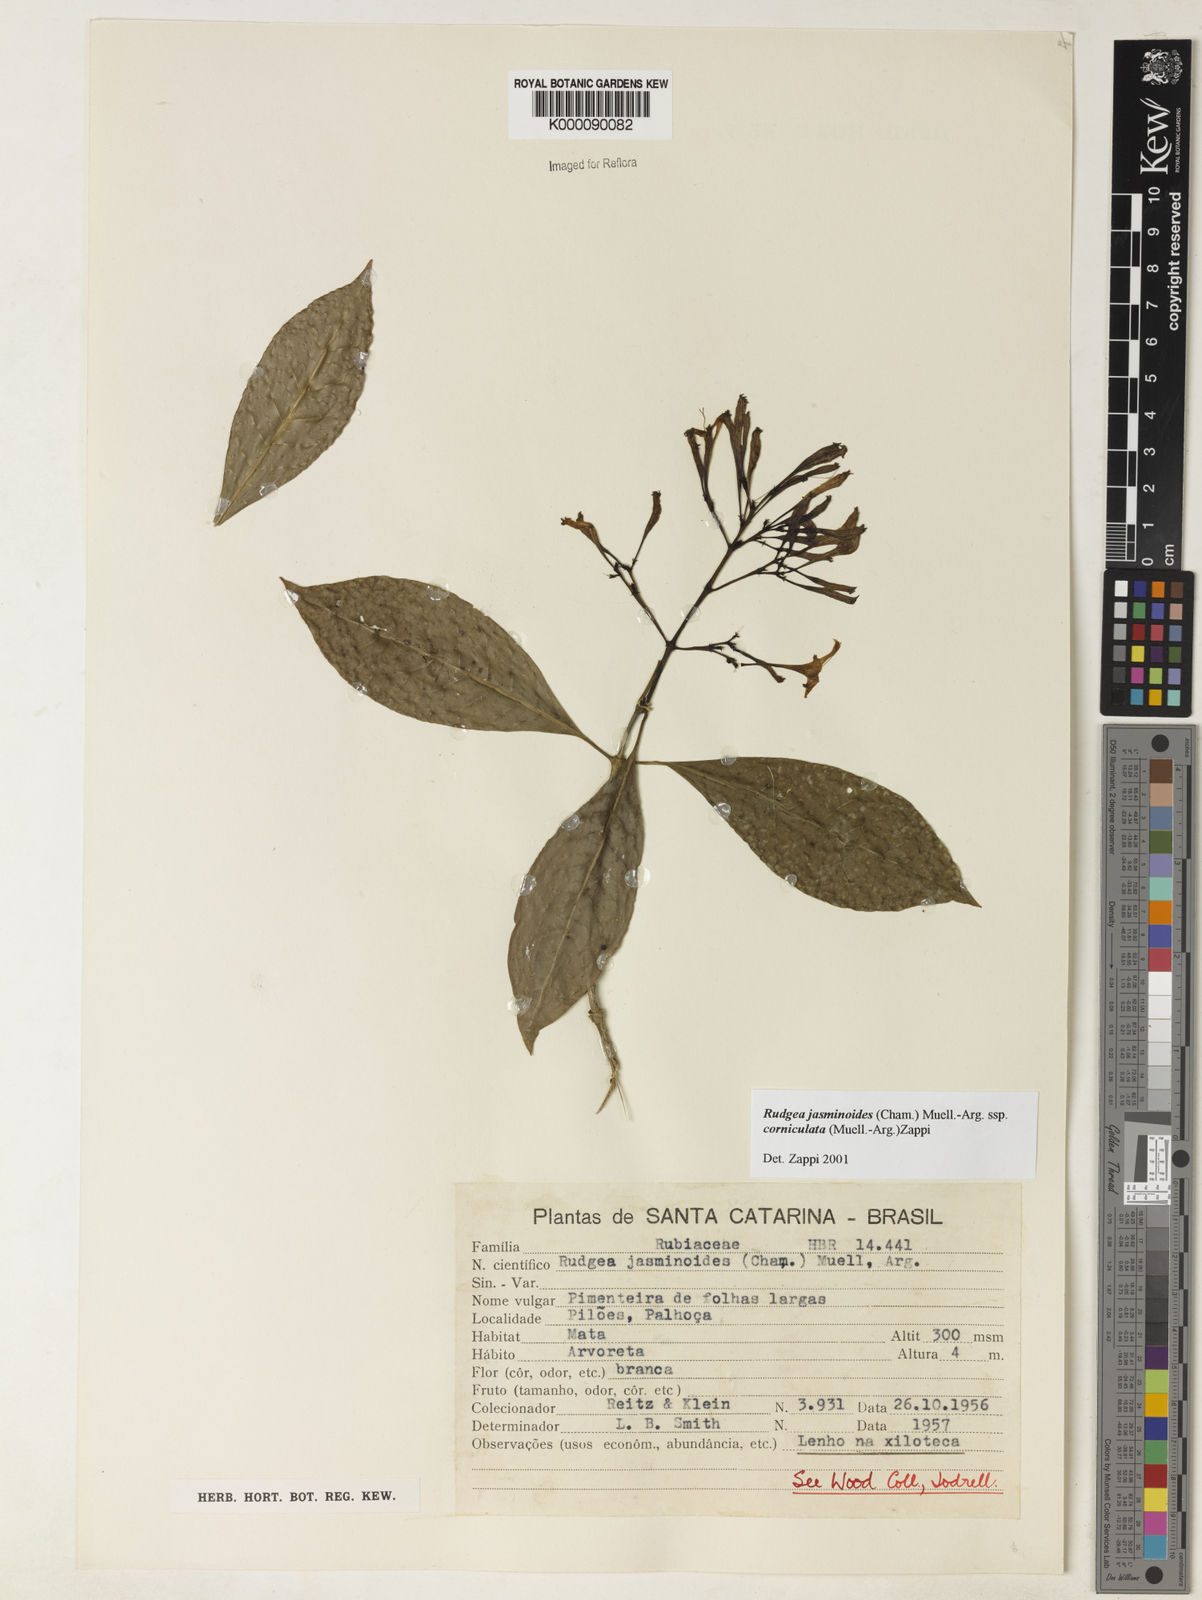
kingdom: Plantae
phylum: Tracheophyta
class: Magnoliopsida
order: Gentianales
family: Rubiaceae
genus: Rudgea
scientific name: Rudgea jasminoides
